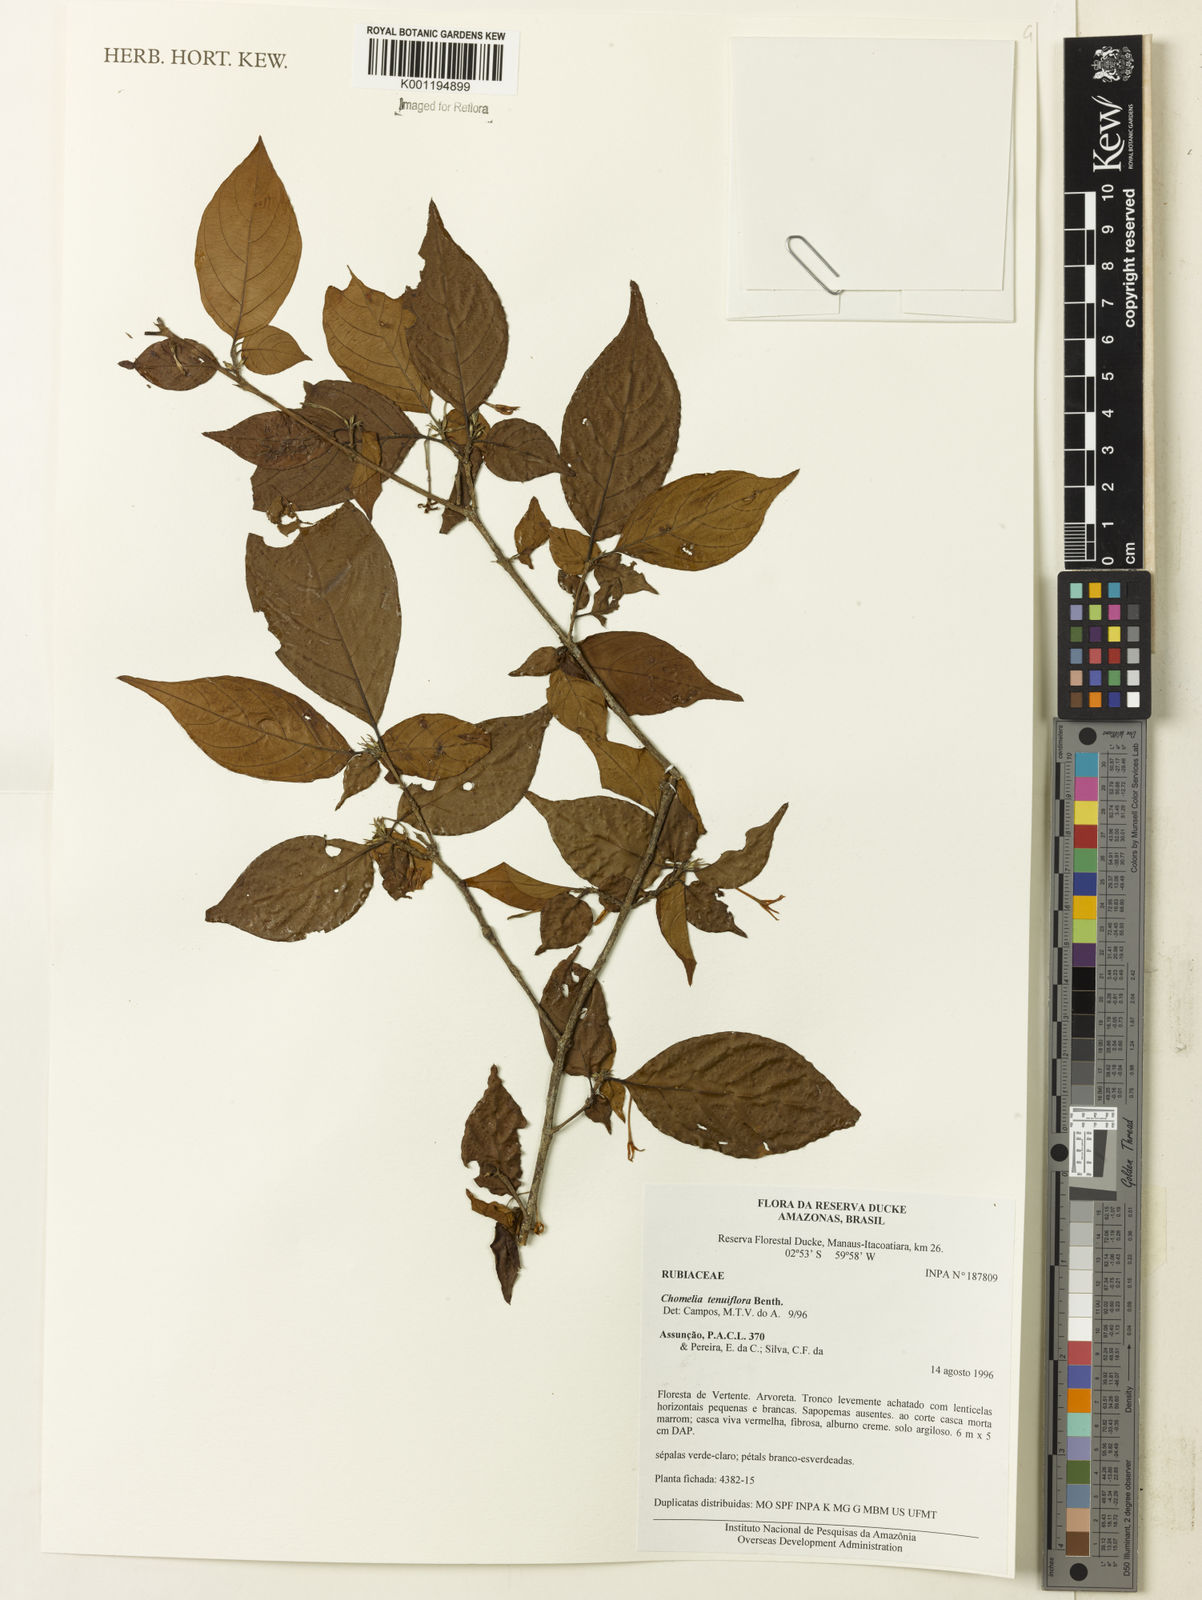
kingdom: Plantae
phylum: Tracheophyta
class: Magnoliopsida
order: Gentianales
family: Rubiaceae
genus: Chomelia
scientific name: Chomelia tenuiflora
